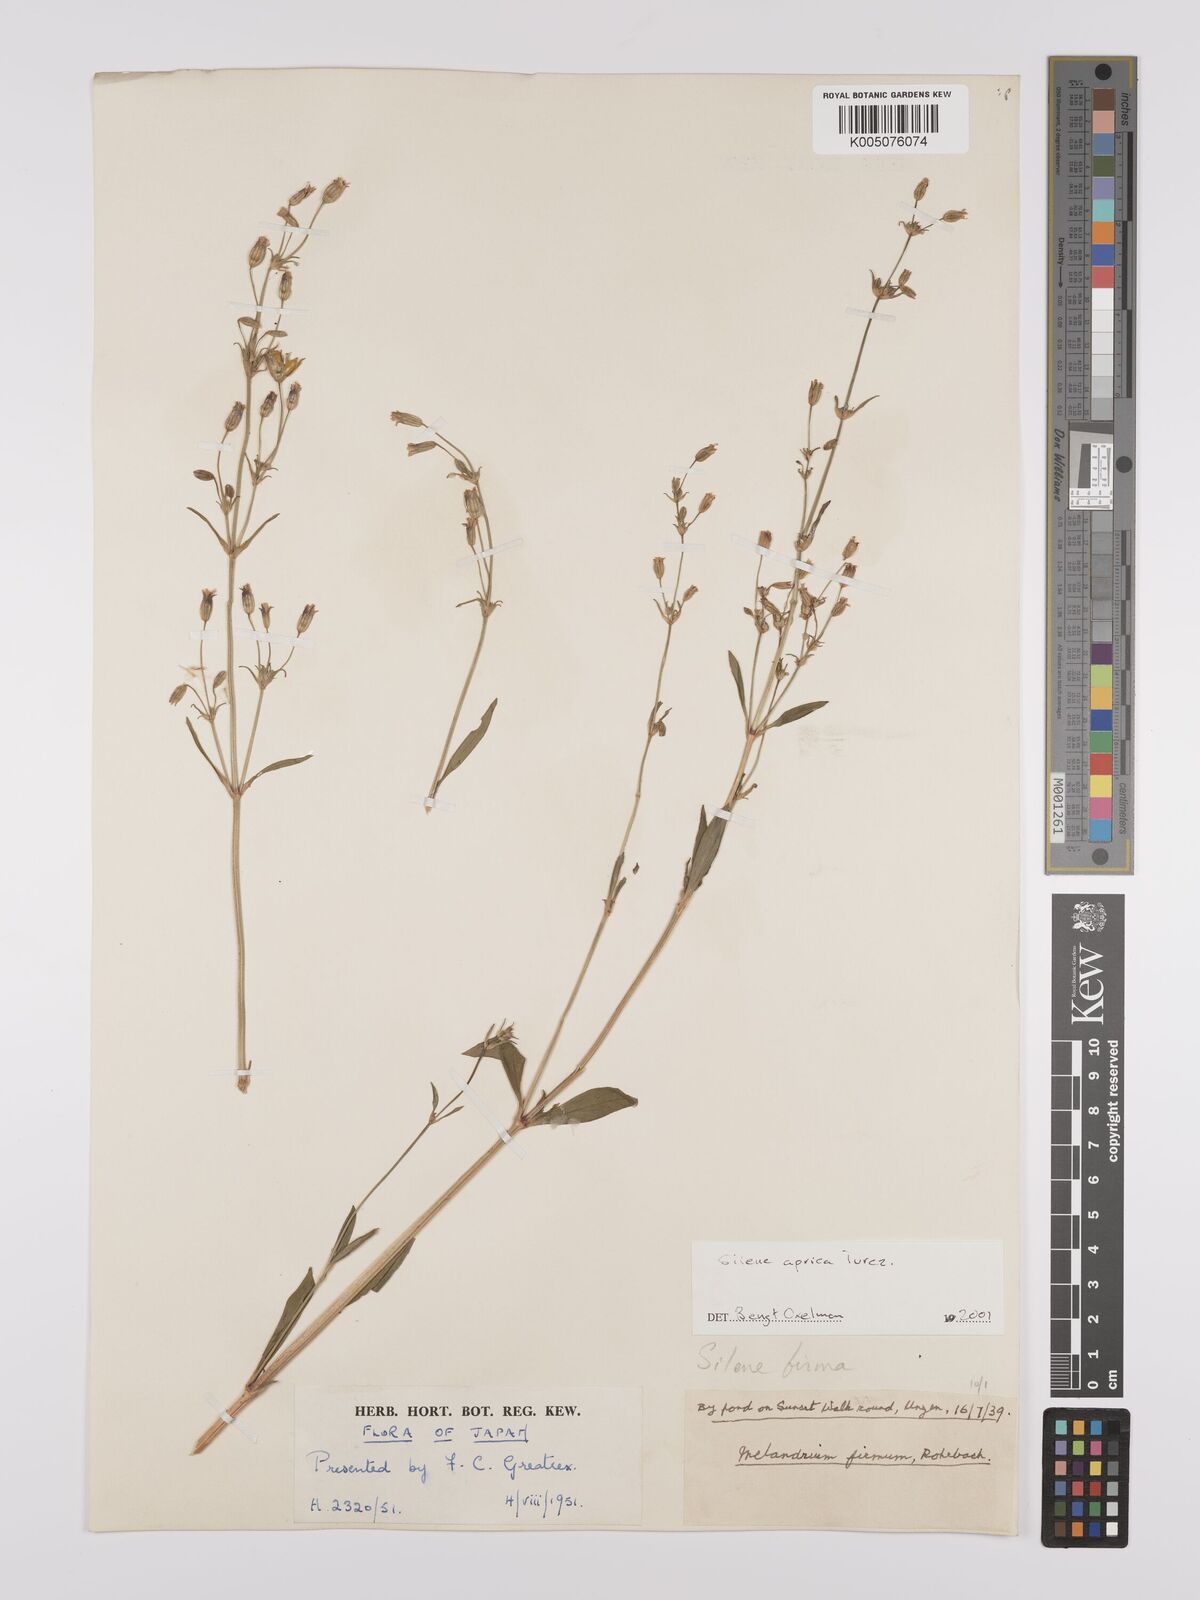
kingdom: Plantae
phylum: Tracheophyta
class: Magnoliopsida
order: Caryophyllales
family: Caryophyllaceae
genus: Silene
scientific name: Silene aprica
